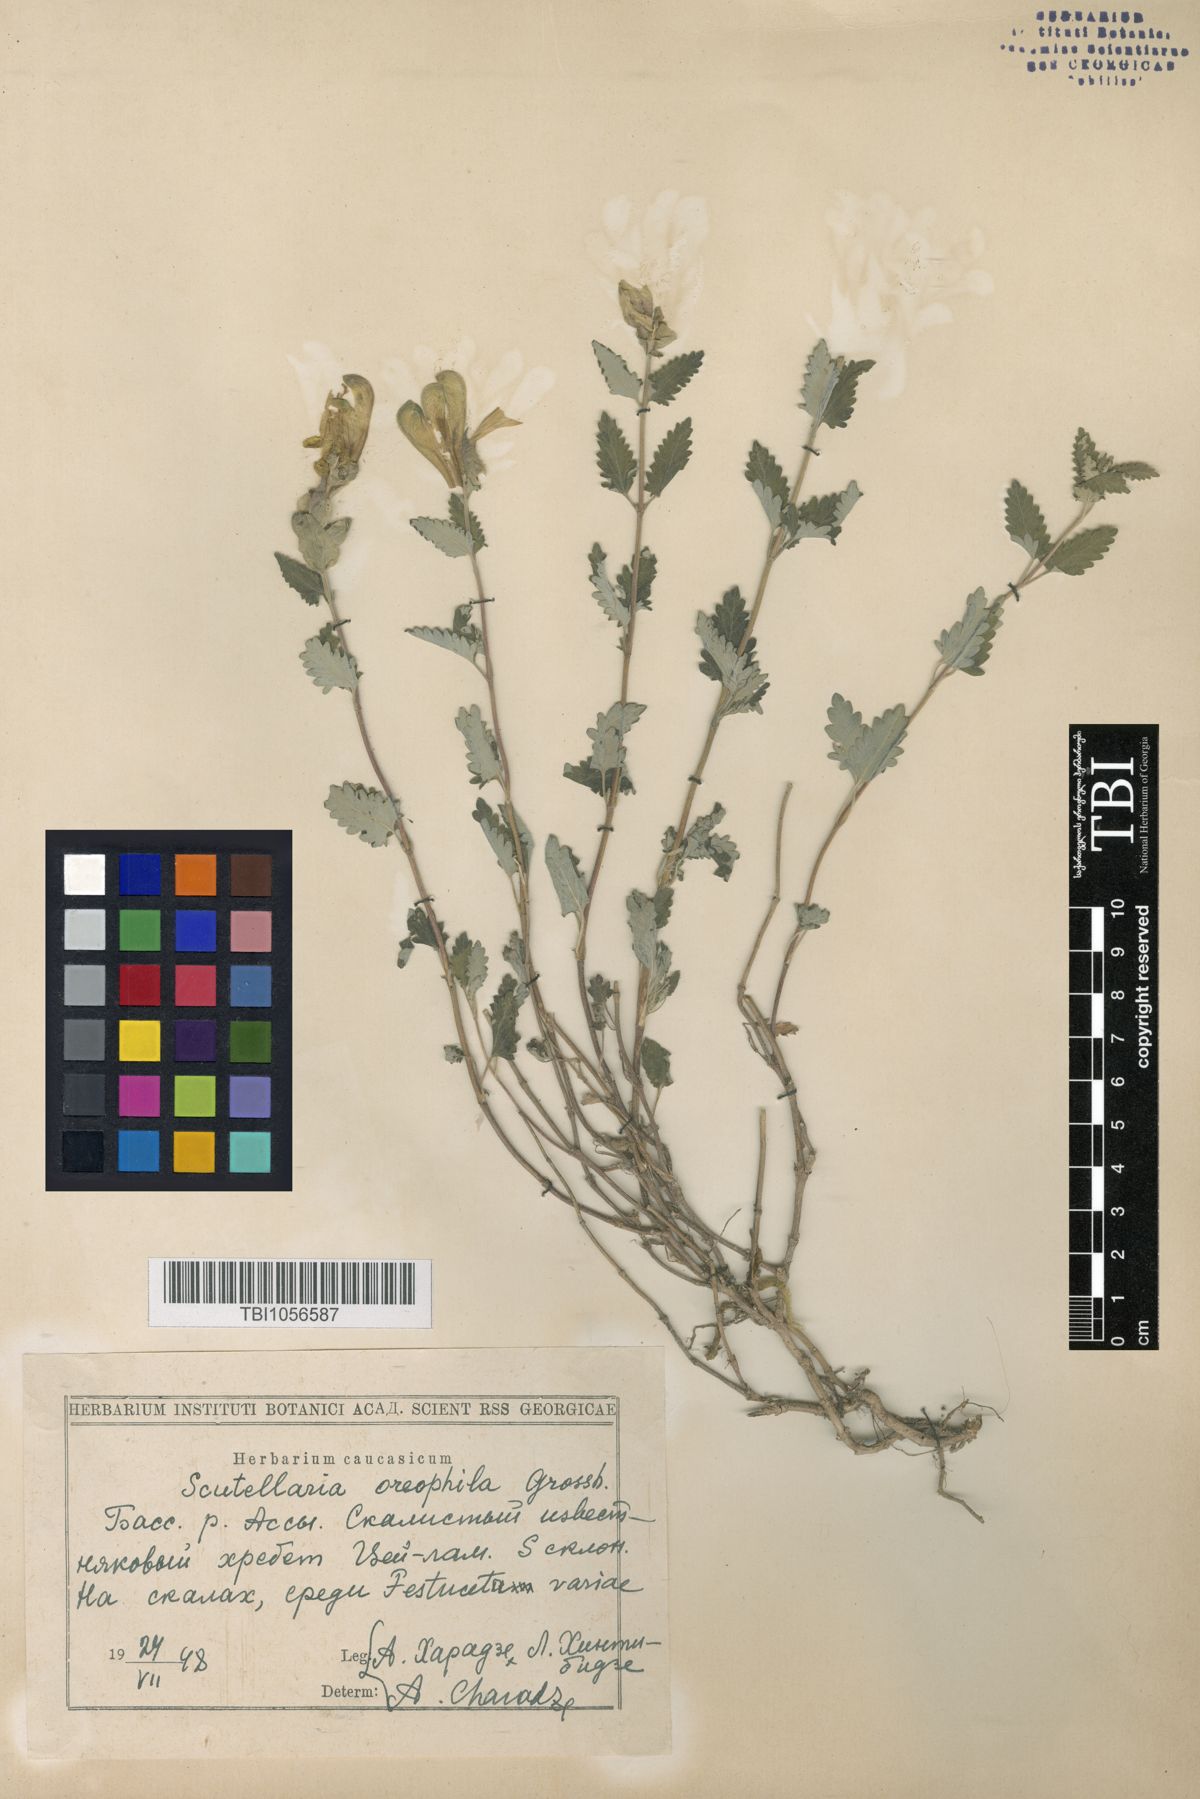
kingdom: Plantae
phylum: Tracheophyta
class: Magnoliopsida
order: Lamiales
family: Lamiaceae
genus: Scutellaria
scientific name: Scutellaria oreophila
